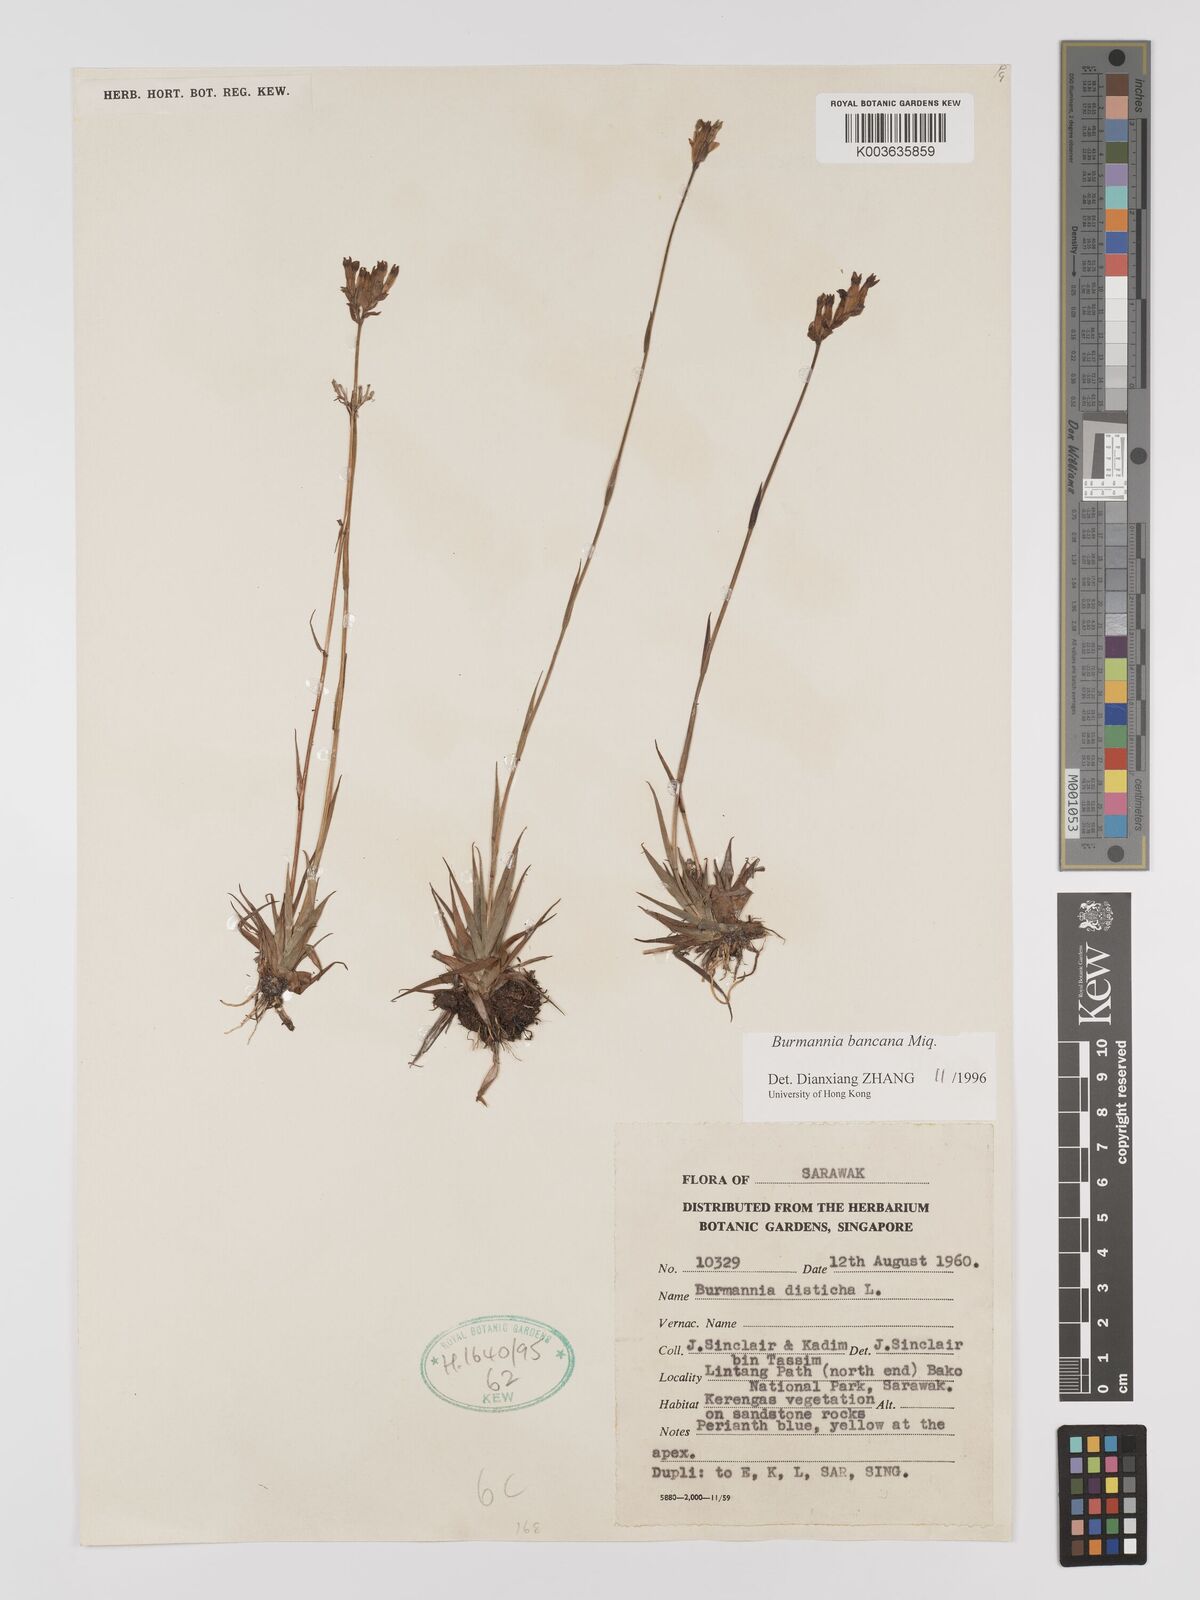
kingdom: Plantae
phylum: Tracheophyta
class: Liliopsida
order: Dioscoreales
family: Burmanniaceae
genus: Burmannia
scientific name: Burmannia disticha
